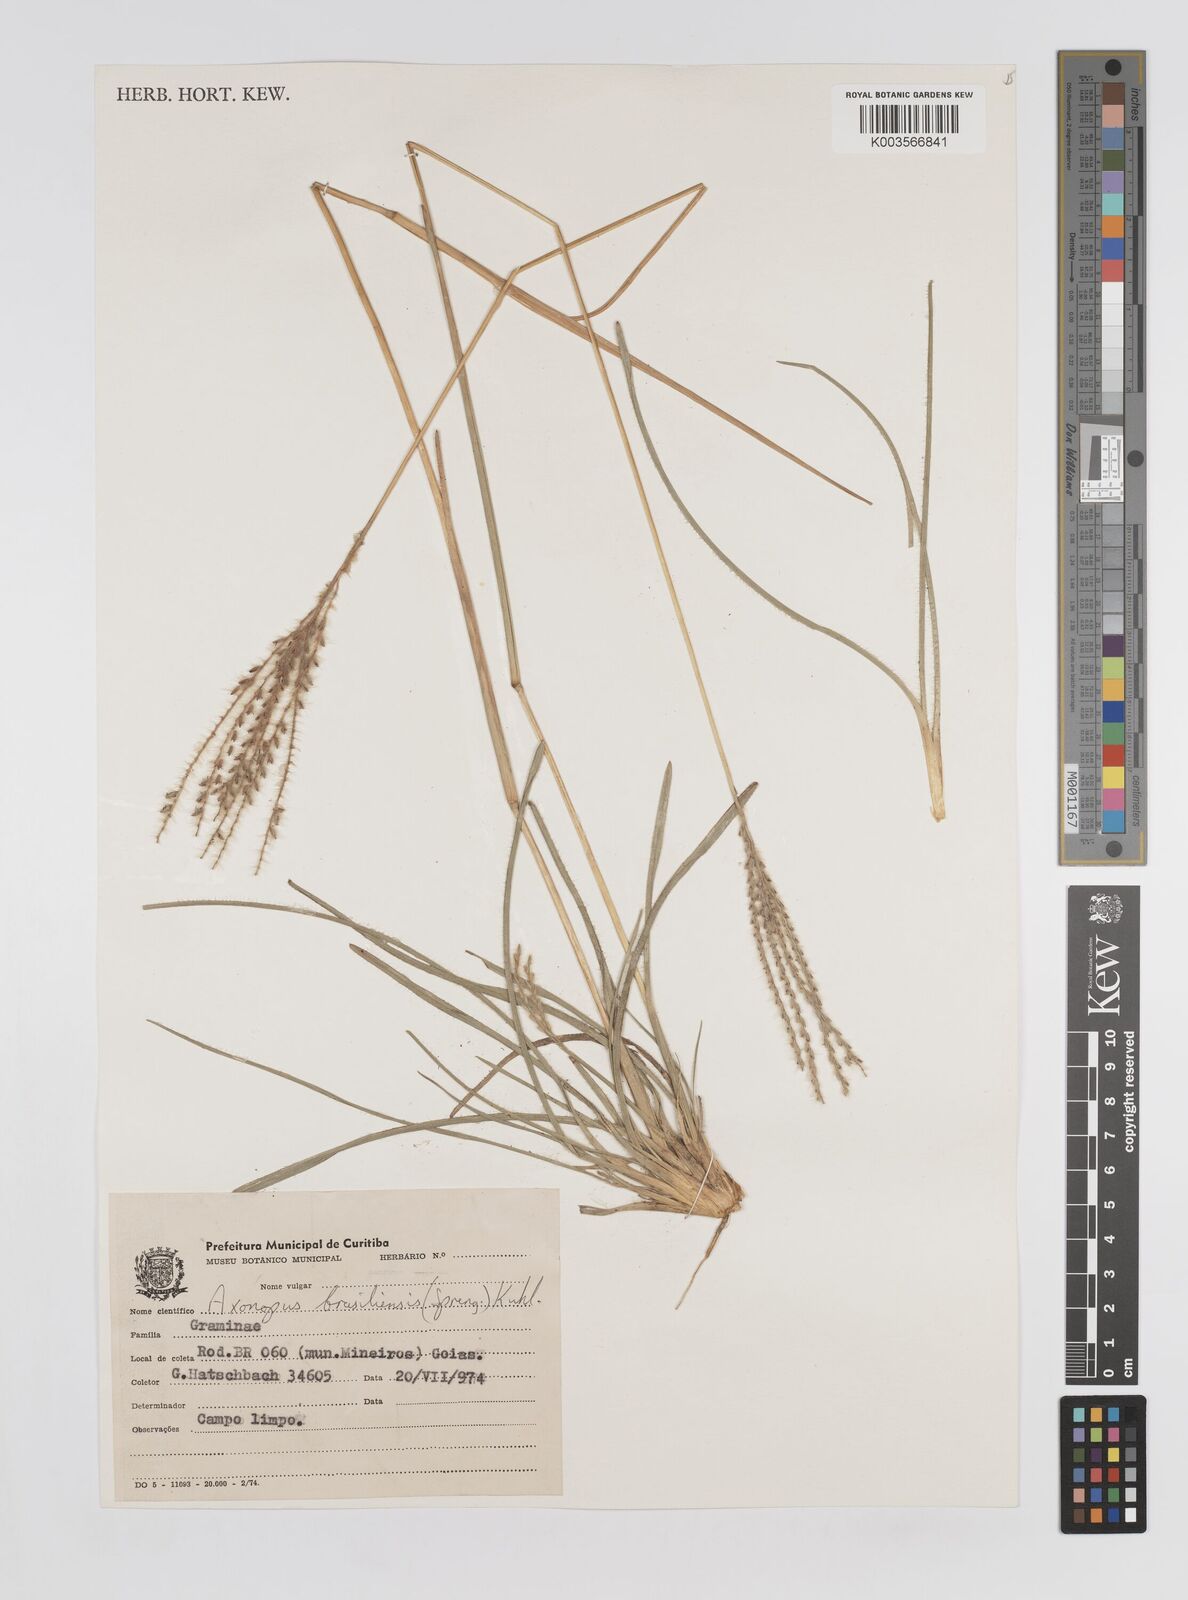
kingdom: Plantae
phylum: Tracheophyta
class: Liliopsida
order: Poales
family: Poaceae
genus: Axonopus
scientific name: Axonopus brasiliensis
